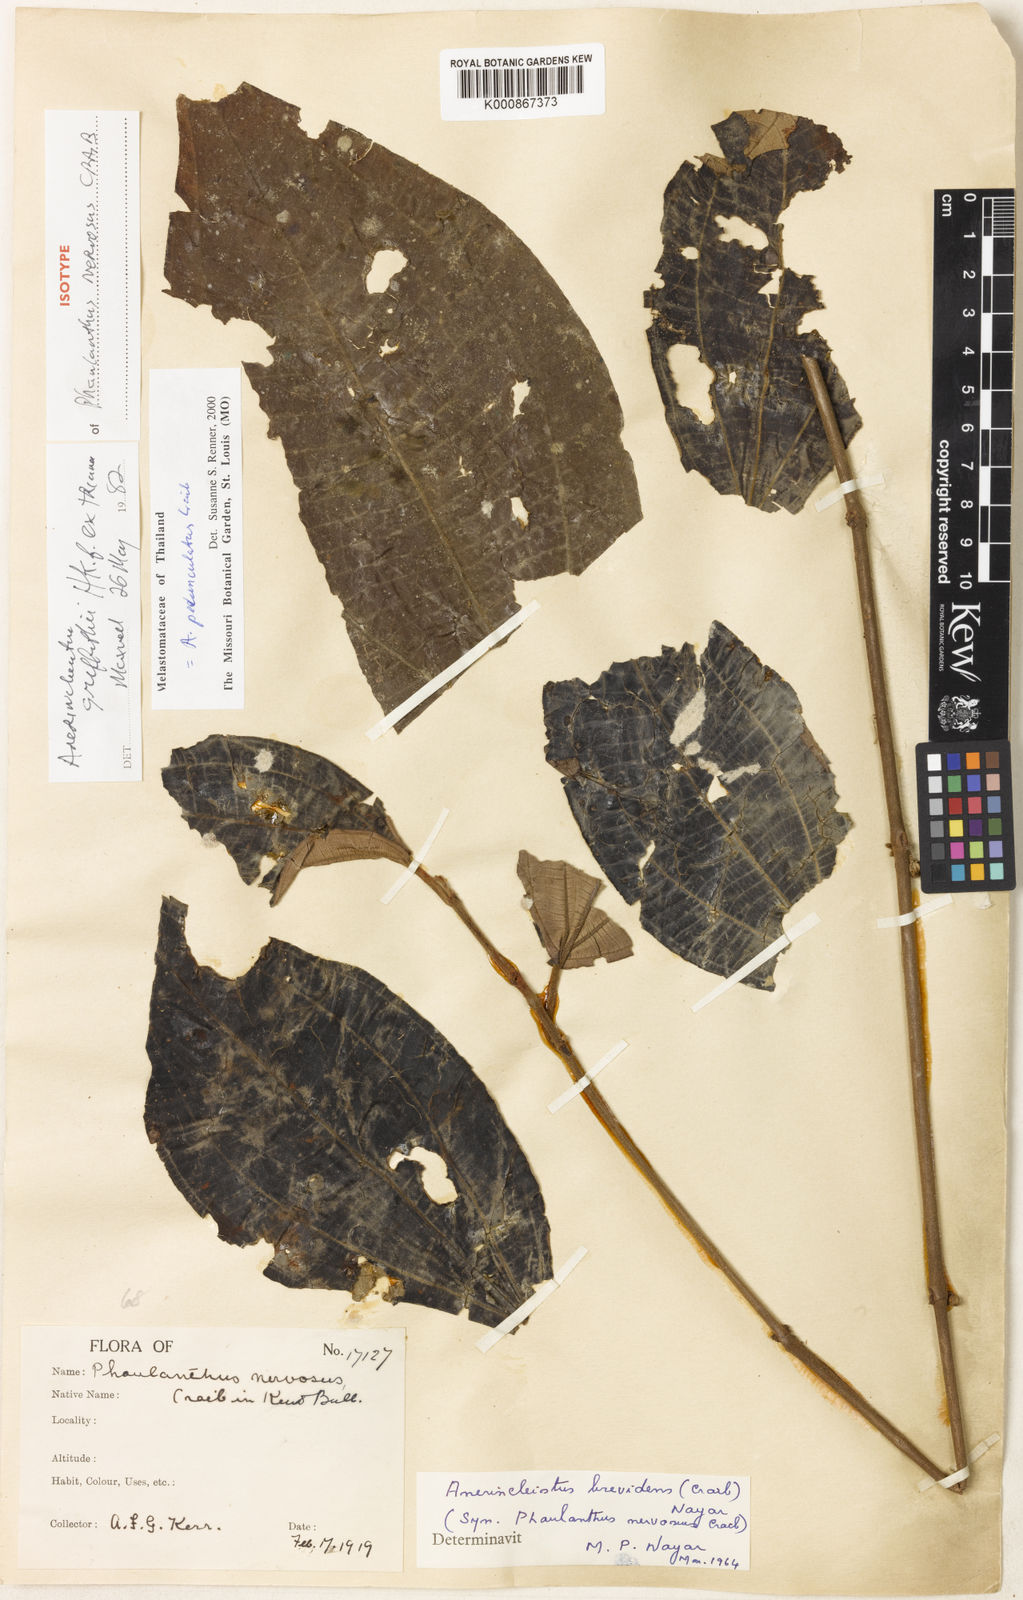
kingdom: Plantae
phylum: Tracheophyta
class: Magnoliopsida
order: Myrtales
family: Melastomataceae
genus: Anerincleistus
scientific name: Anerincleistus pedunculatus
